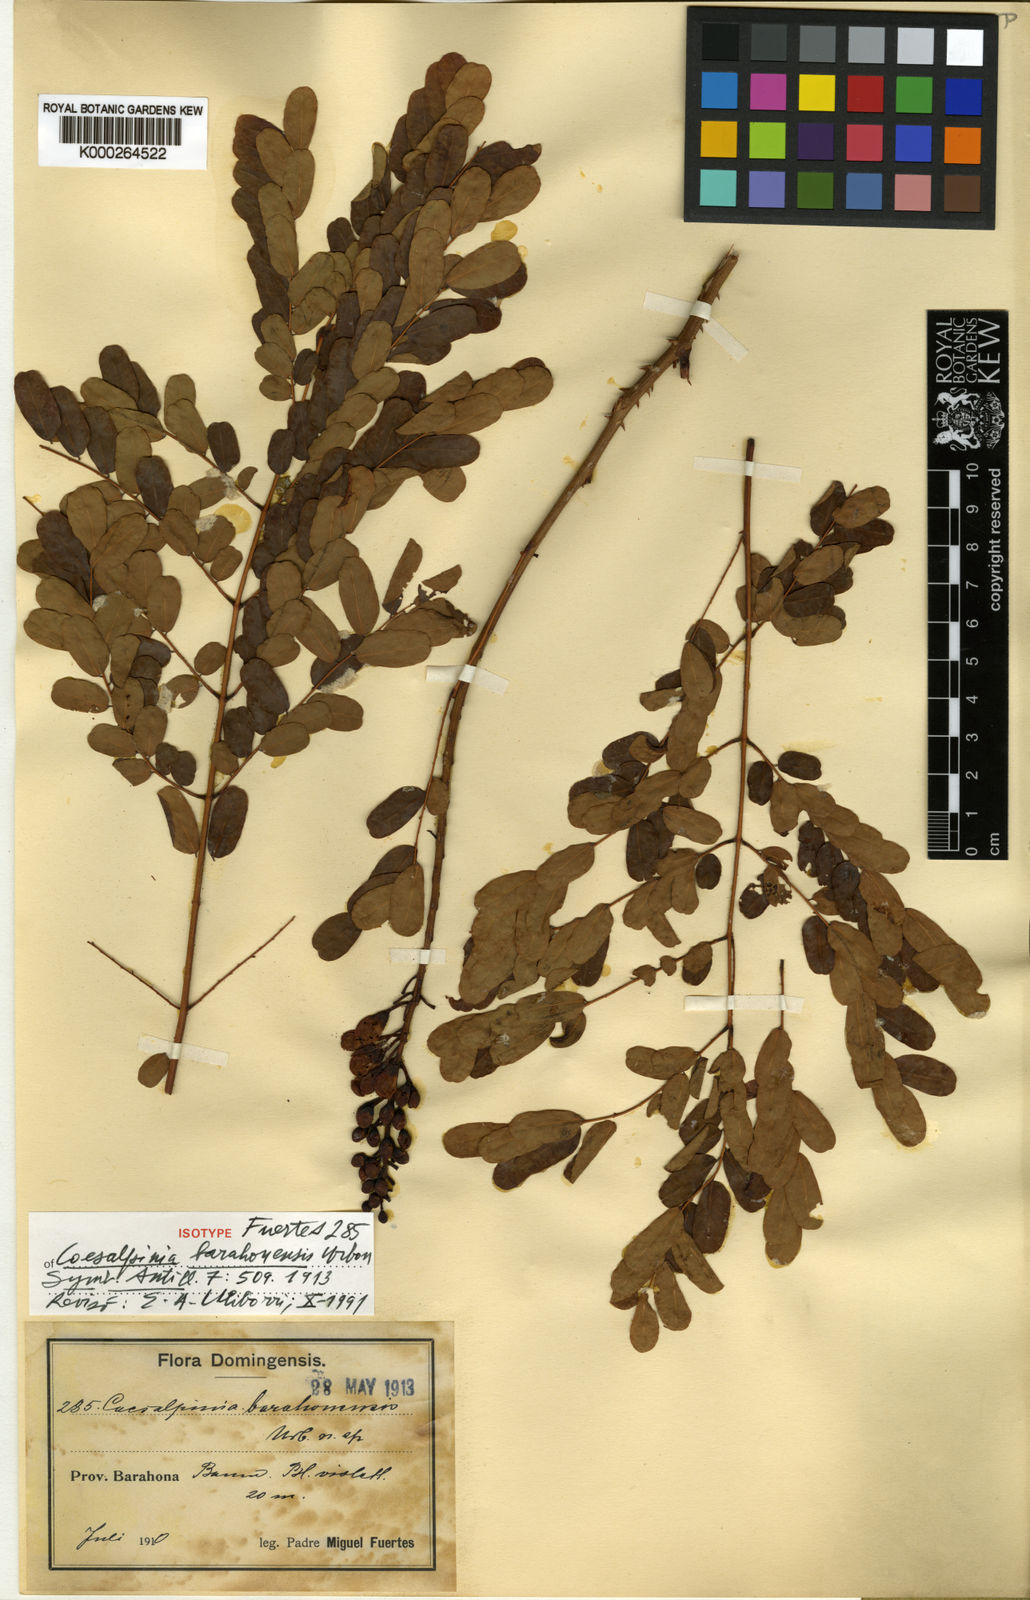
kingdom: Plantae
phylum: Tracheophyta
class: Magnoliopsida
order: Fabales
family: Fabaceae
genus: Caesalpinia
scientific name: Caesalpinia barahonensis
